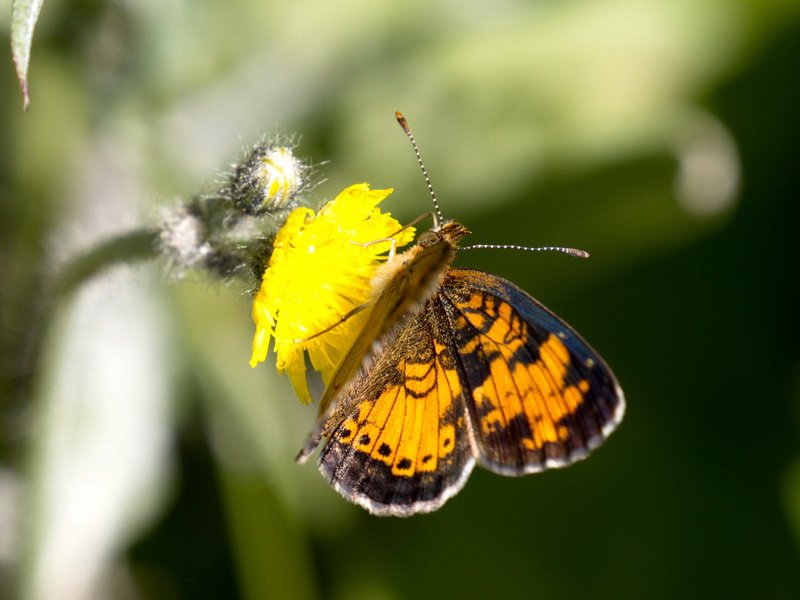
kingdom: Animalia
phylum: Arthropoda
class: Insecta
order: Lepidoptera
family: Nymphalidae
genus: Phyciodes
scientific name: Phyciodes tharos
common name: Northern Crescent
